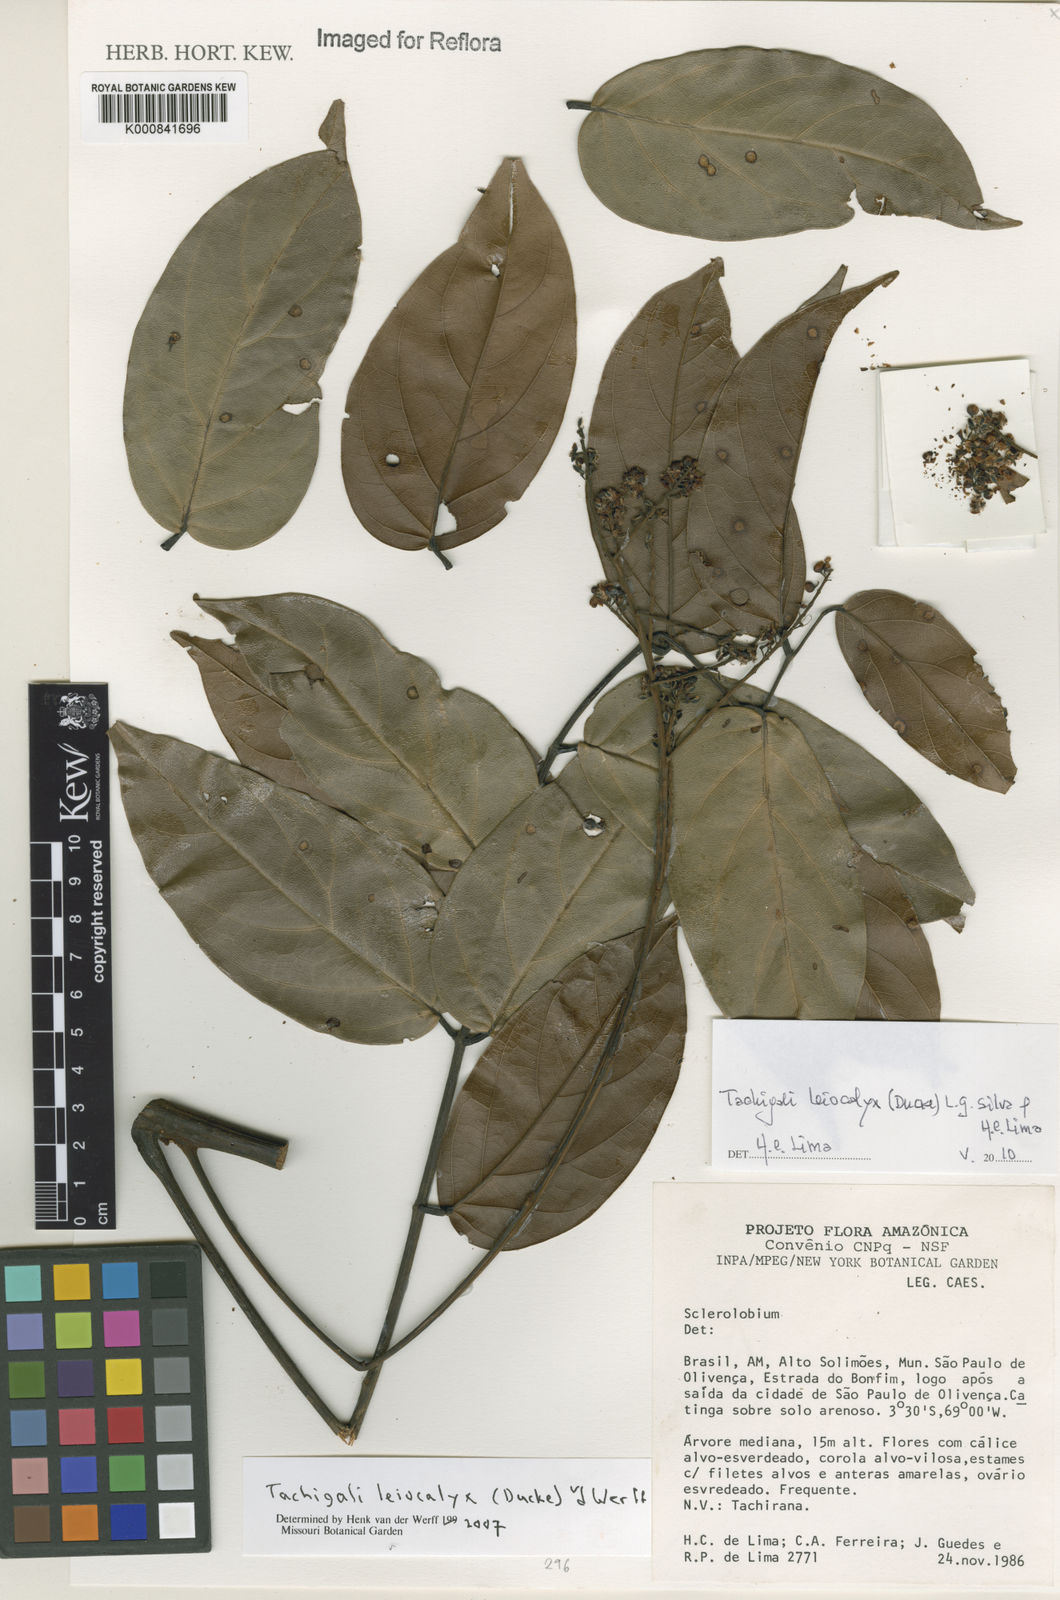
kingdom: Plantae
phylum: Tracheophyta
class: Magnoliopsida
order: Fabales
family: Fabaceae
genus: Tachigali
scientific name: Tachigali leiocalyx
